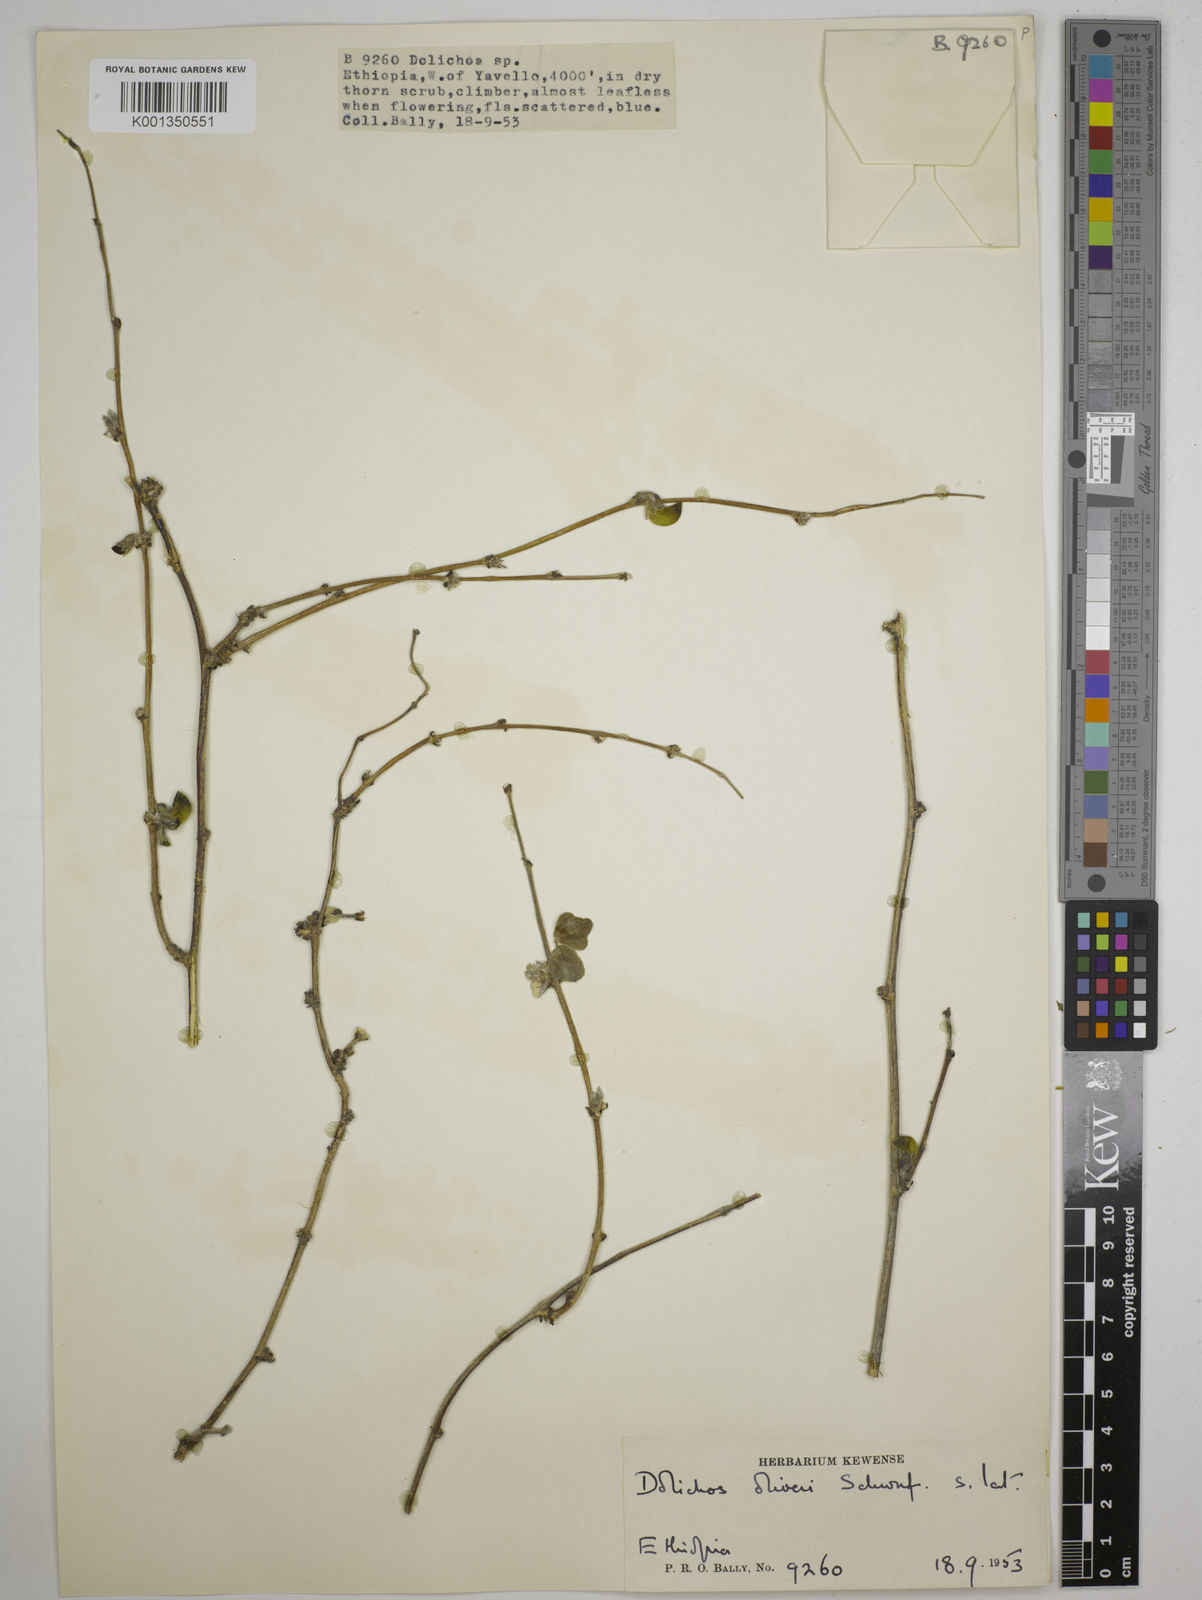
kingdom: Plantae
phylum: Tracheophyta
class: Magnoliopsida
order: Fabales
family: Fabaceae
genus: Dolichos
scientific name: Dolichos oliveri
